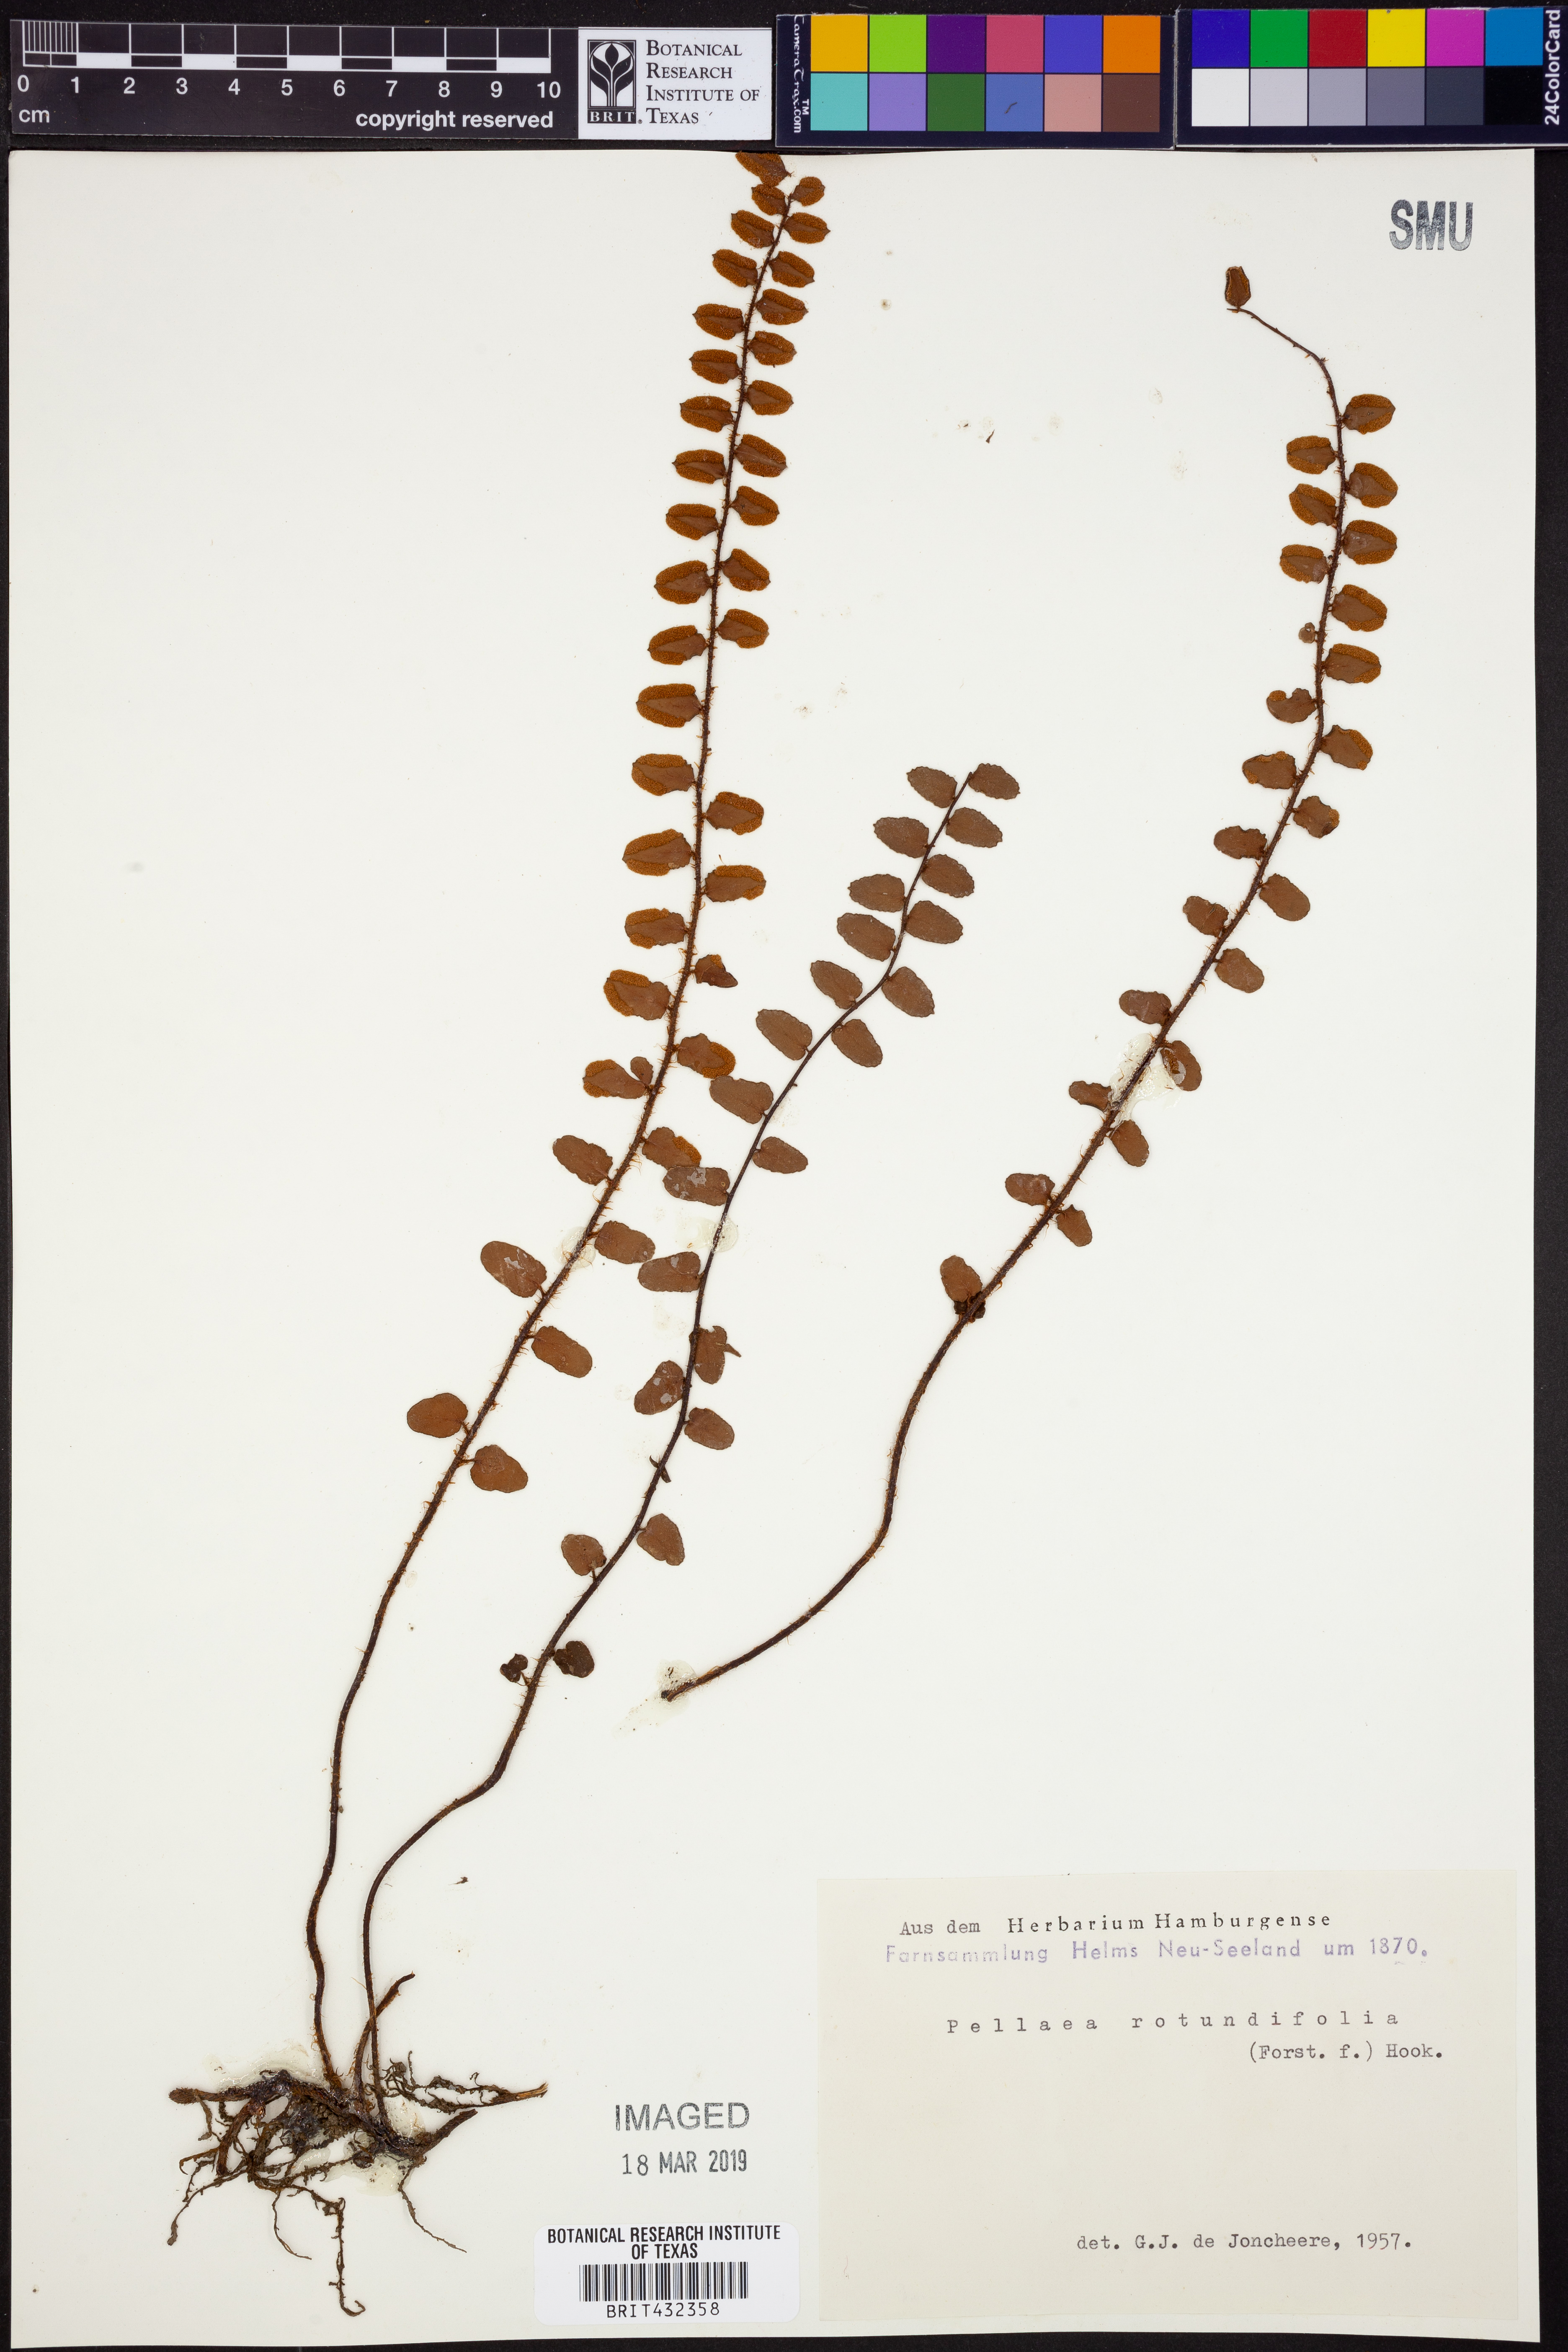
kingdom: Plantae
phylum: Tracheophyta
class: Polypodiopsida
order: Polypodiales
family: Pteridaceae
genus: Pellaea
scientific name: Pellaea rotundifolia
